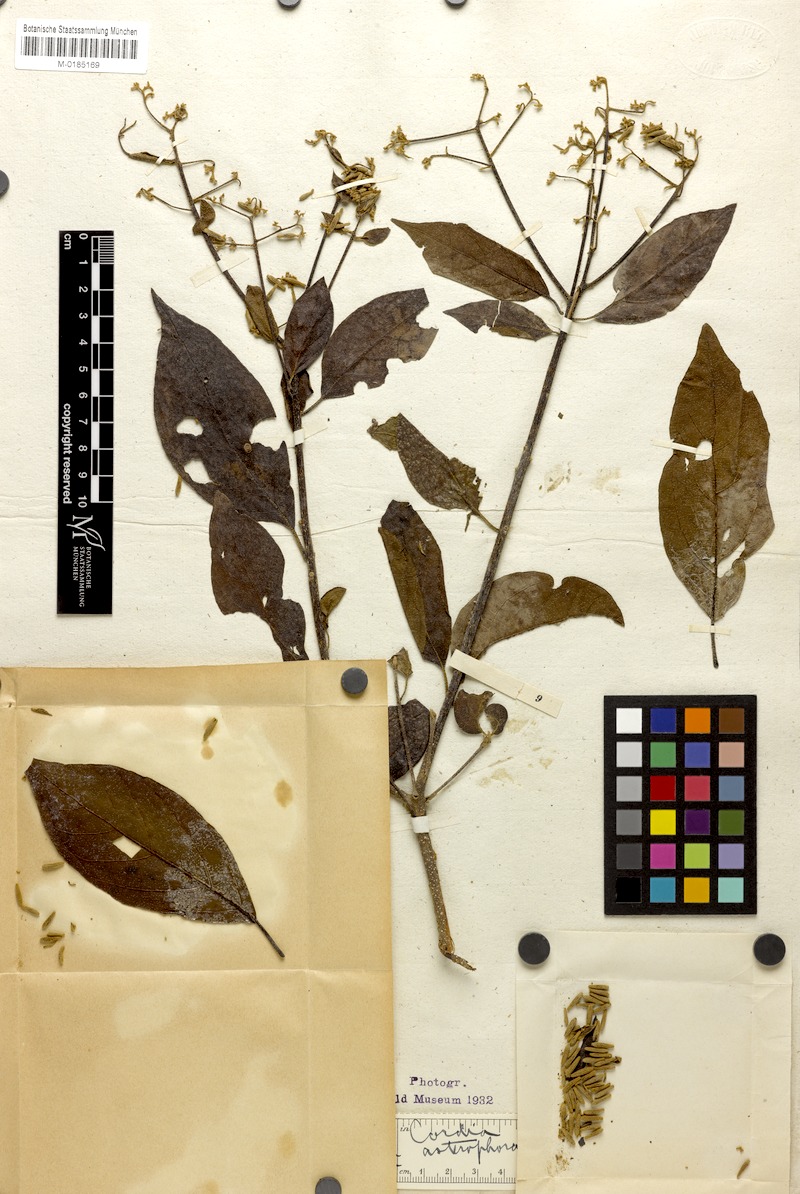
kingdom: Plantae
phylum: Tracheophyta
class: Magnoliopsida
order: Boraginales
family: Cordiaceae
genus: Cordia
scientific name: Cordia trichotoma
